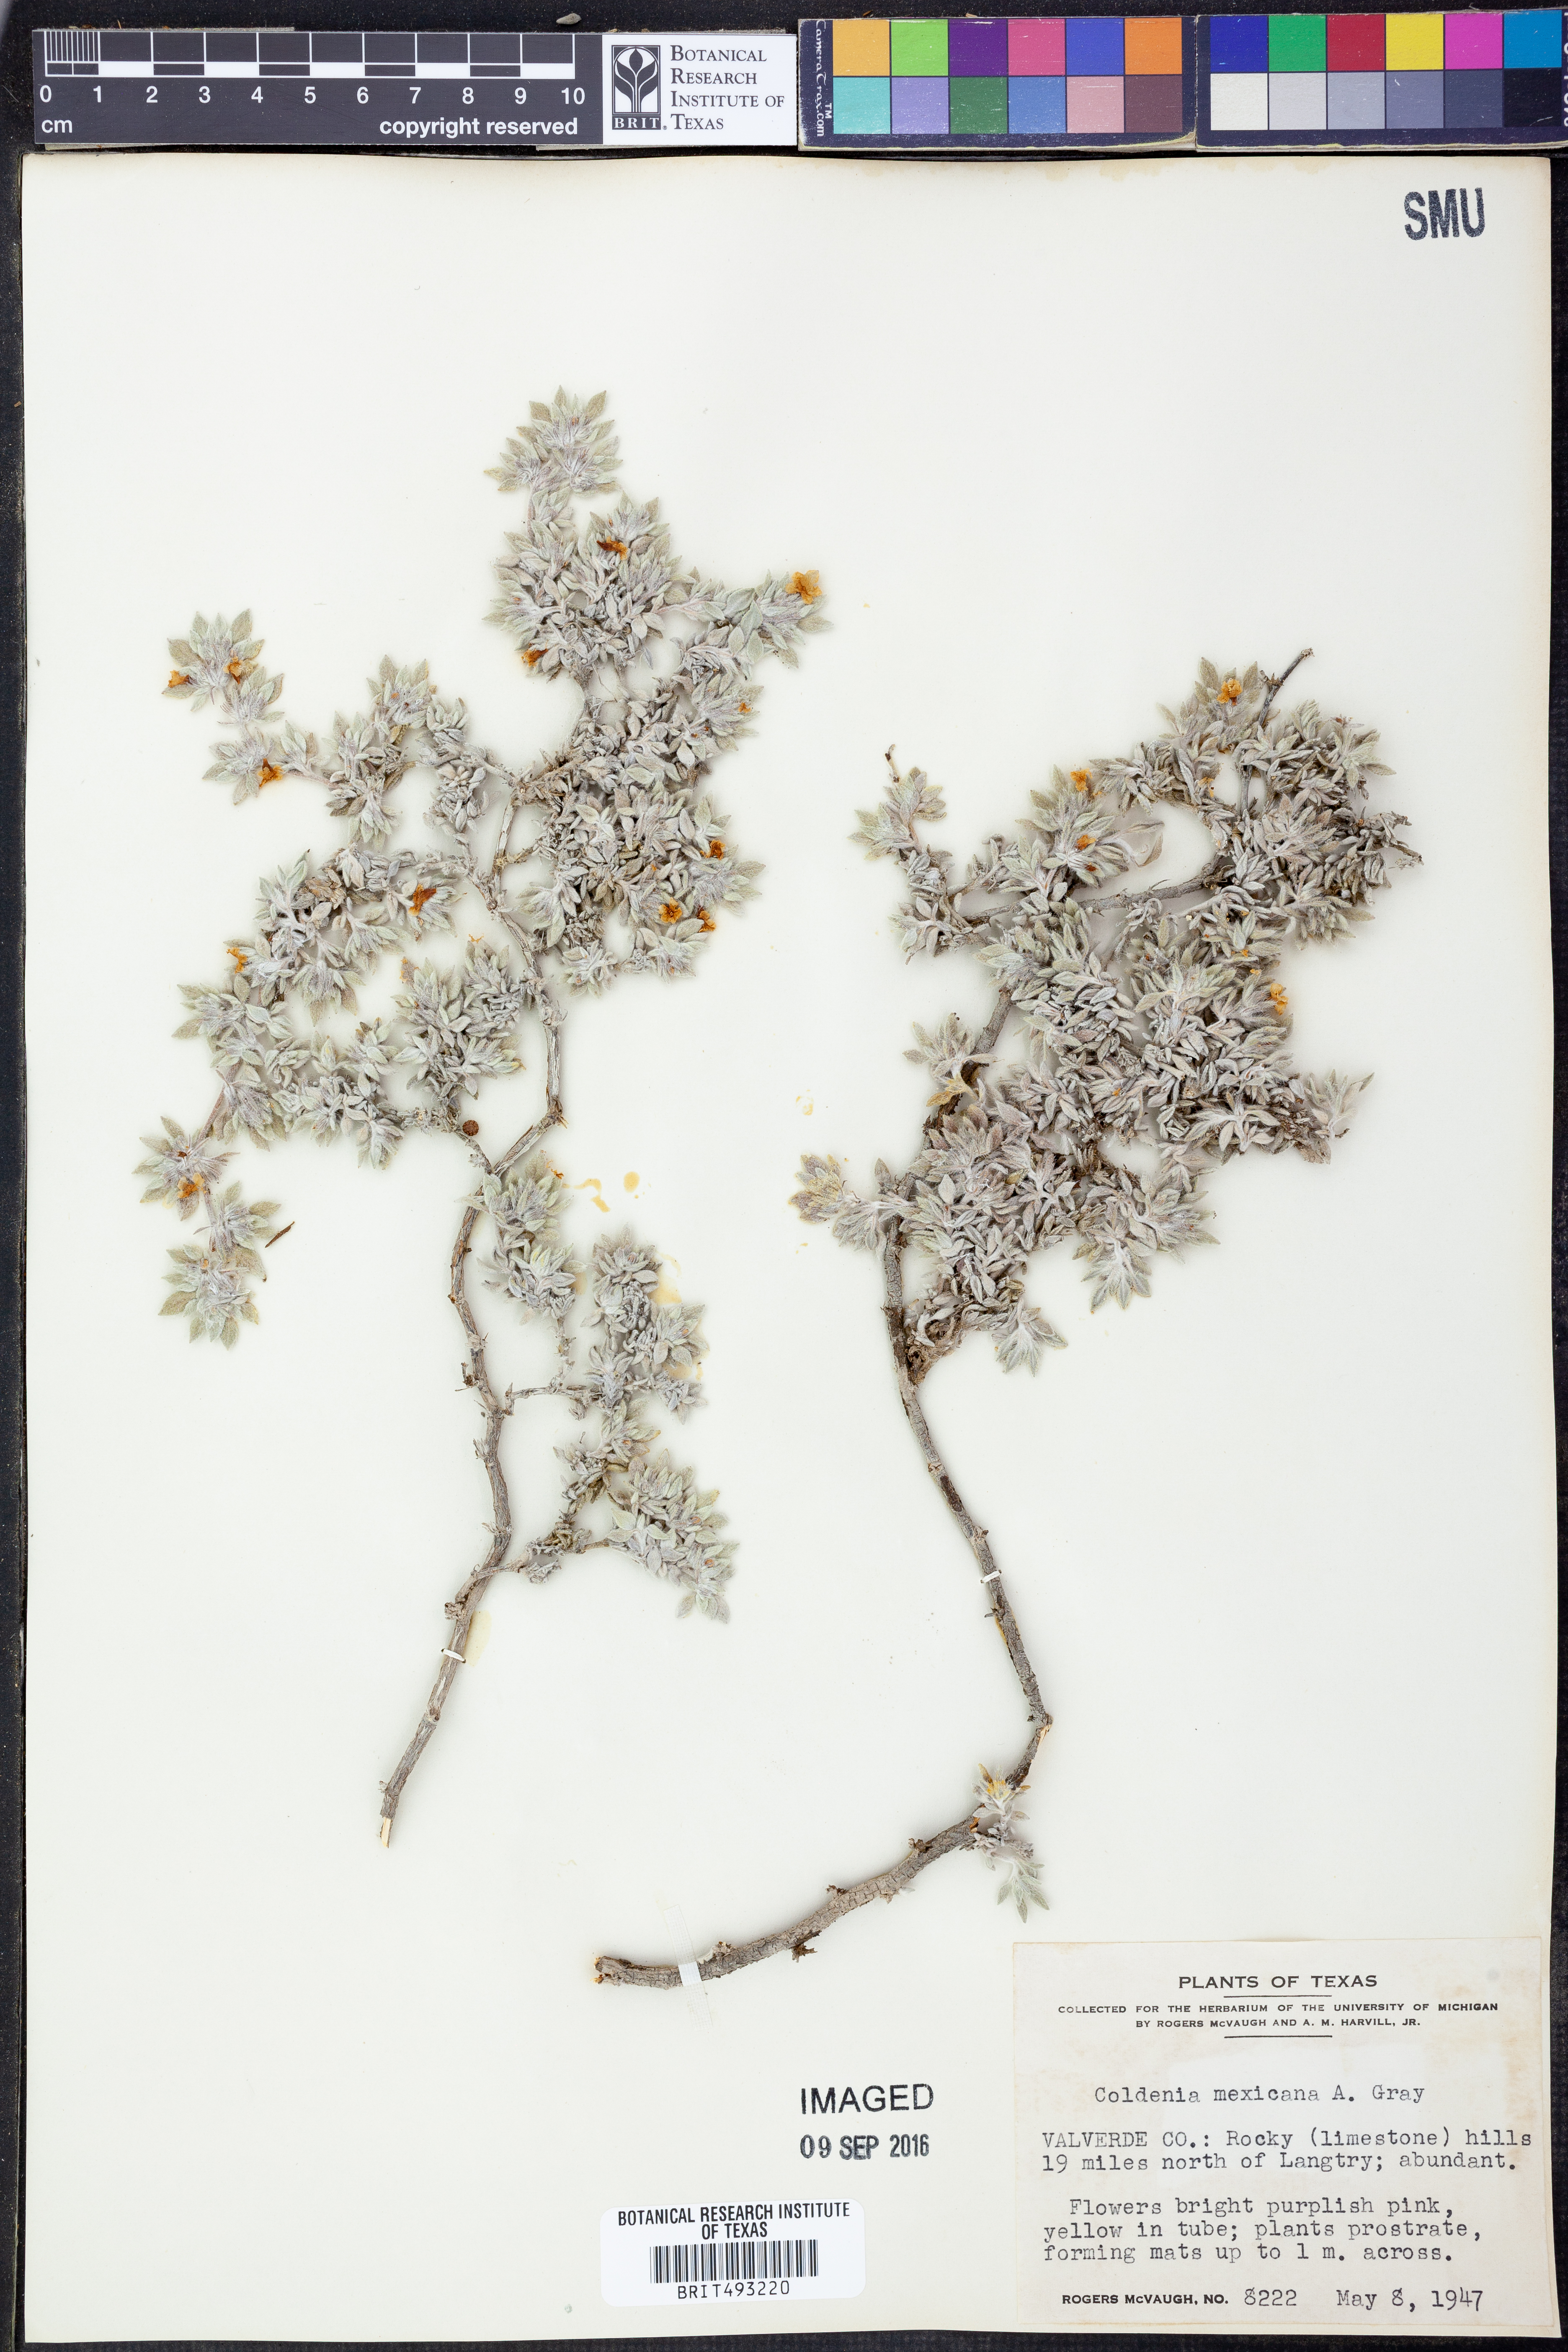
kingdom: Plantae
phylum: Tracheophyta
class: Magnoliopsida
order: Boraginales
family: Ehretiaceae
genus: Tiquilia
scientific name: Tiquilia mexicana
